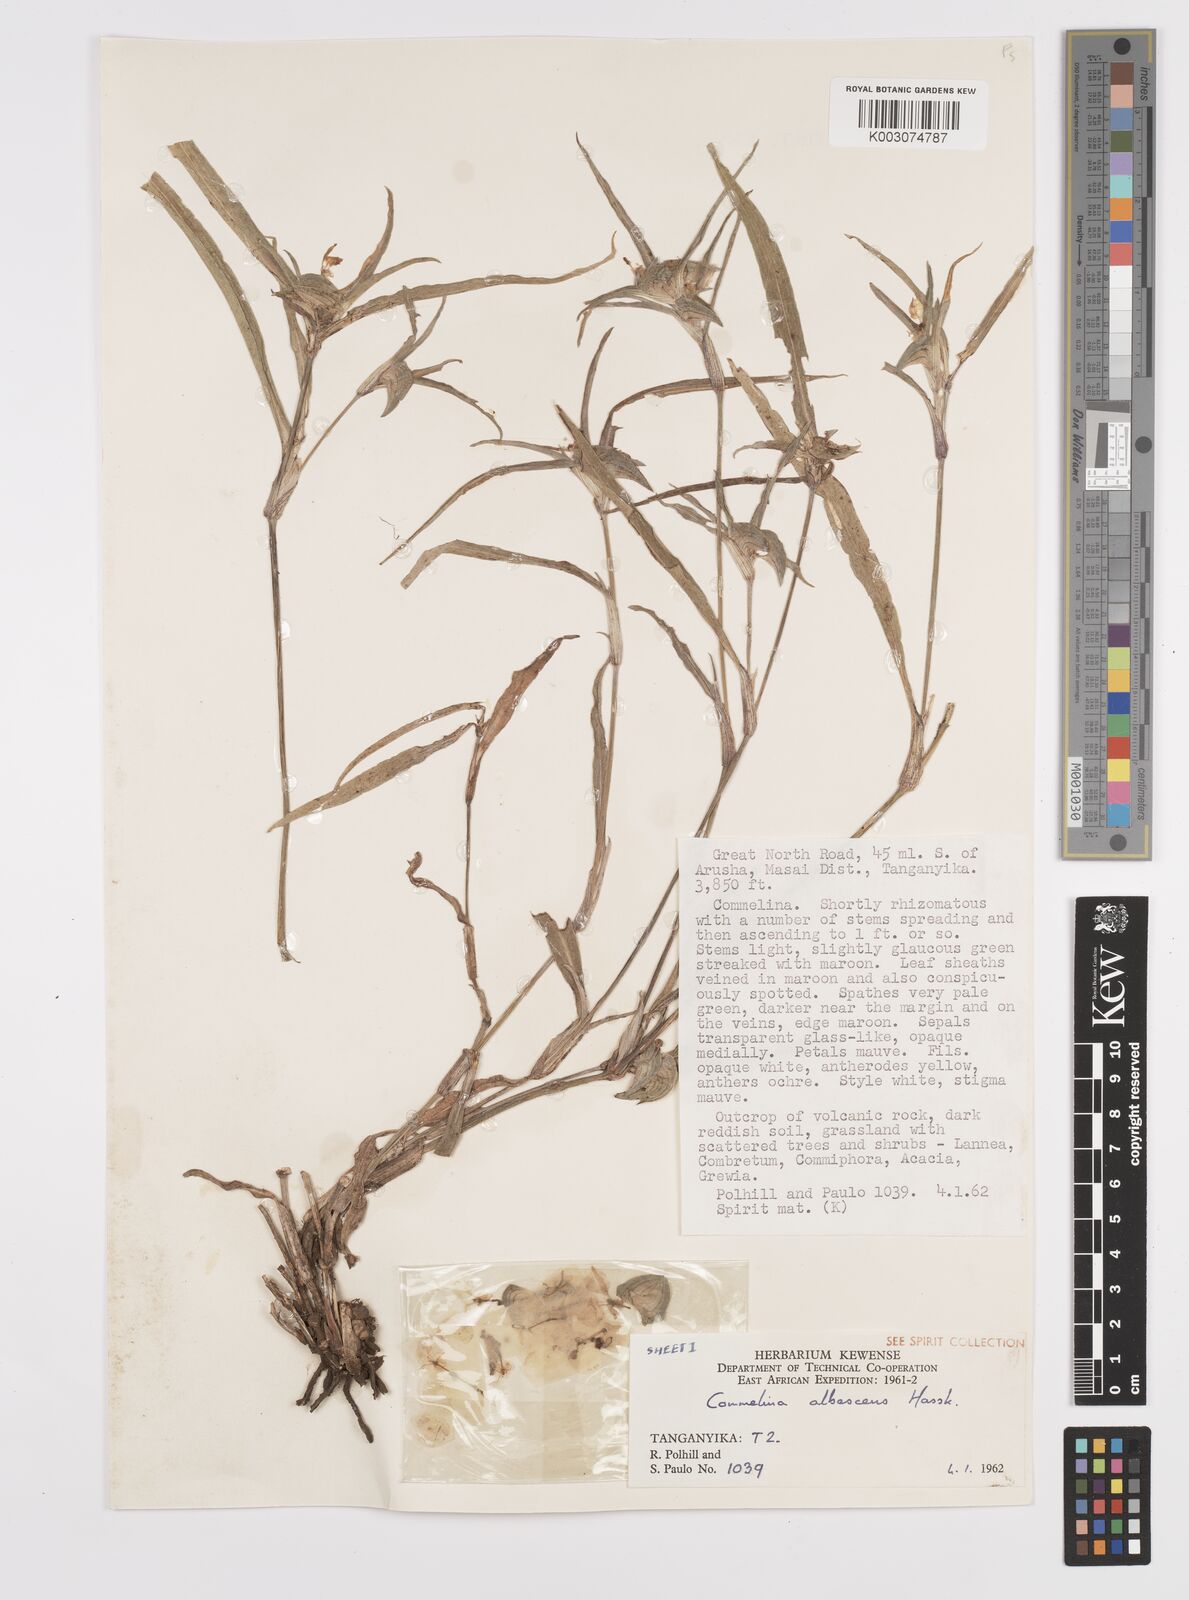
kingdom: Plantae
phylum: Tracheophyta
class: Liliopsida
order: Commelinales
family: Commelinaceae
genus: Commelina
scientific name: Commelina albescens
